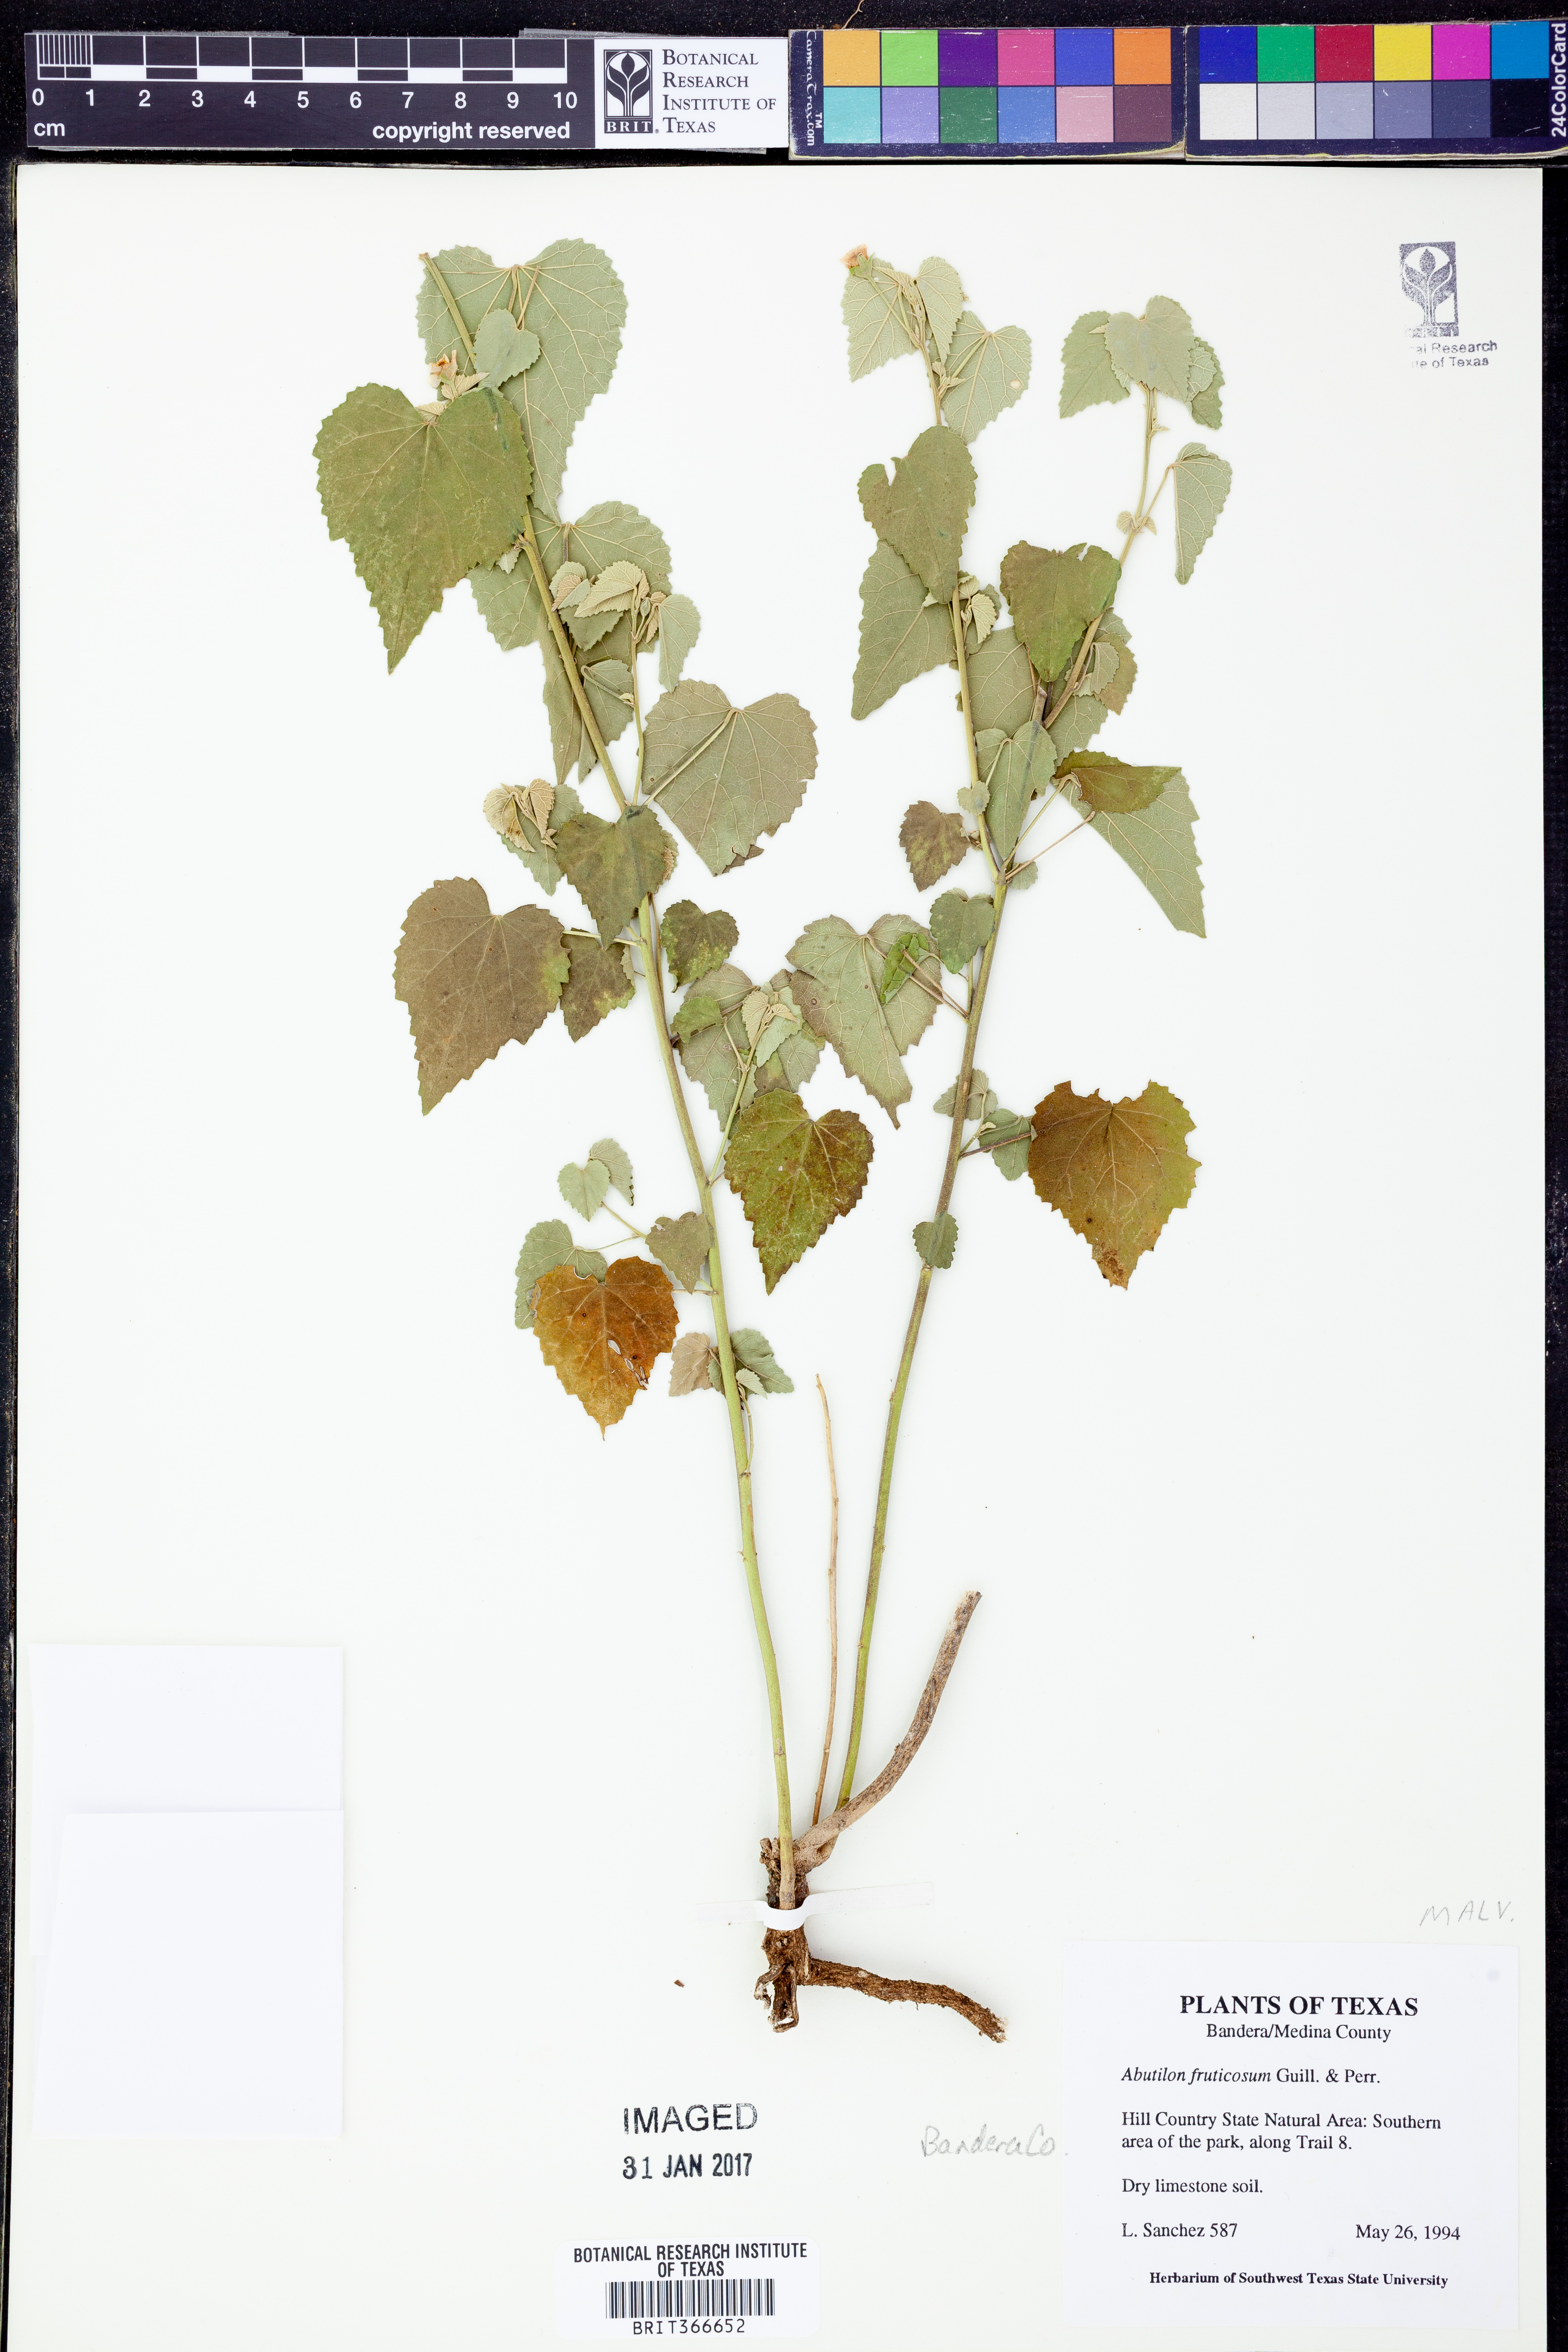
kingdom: Plantae
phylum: Tracheophyta
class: Magnoliopsida
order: Malvales
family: Malvaceae
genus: Abutilon
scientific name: Abutilon fruticosum
